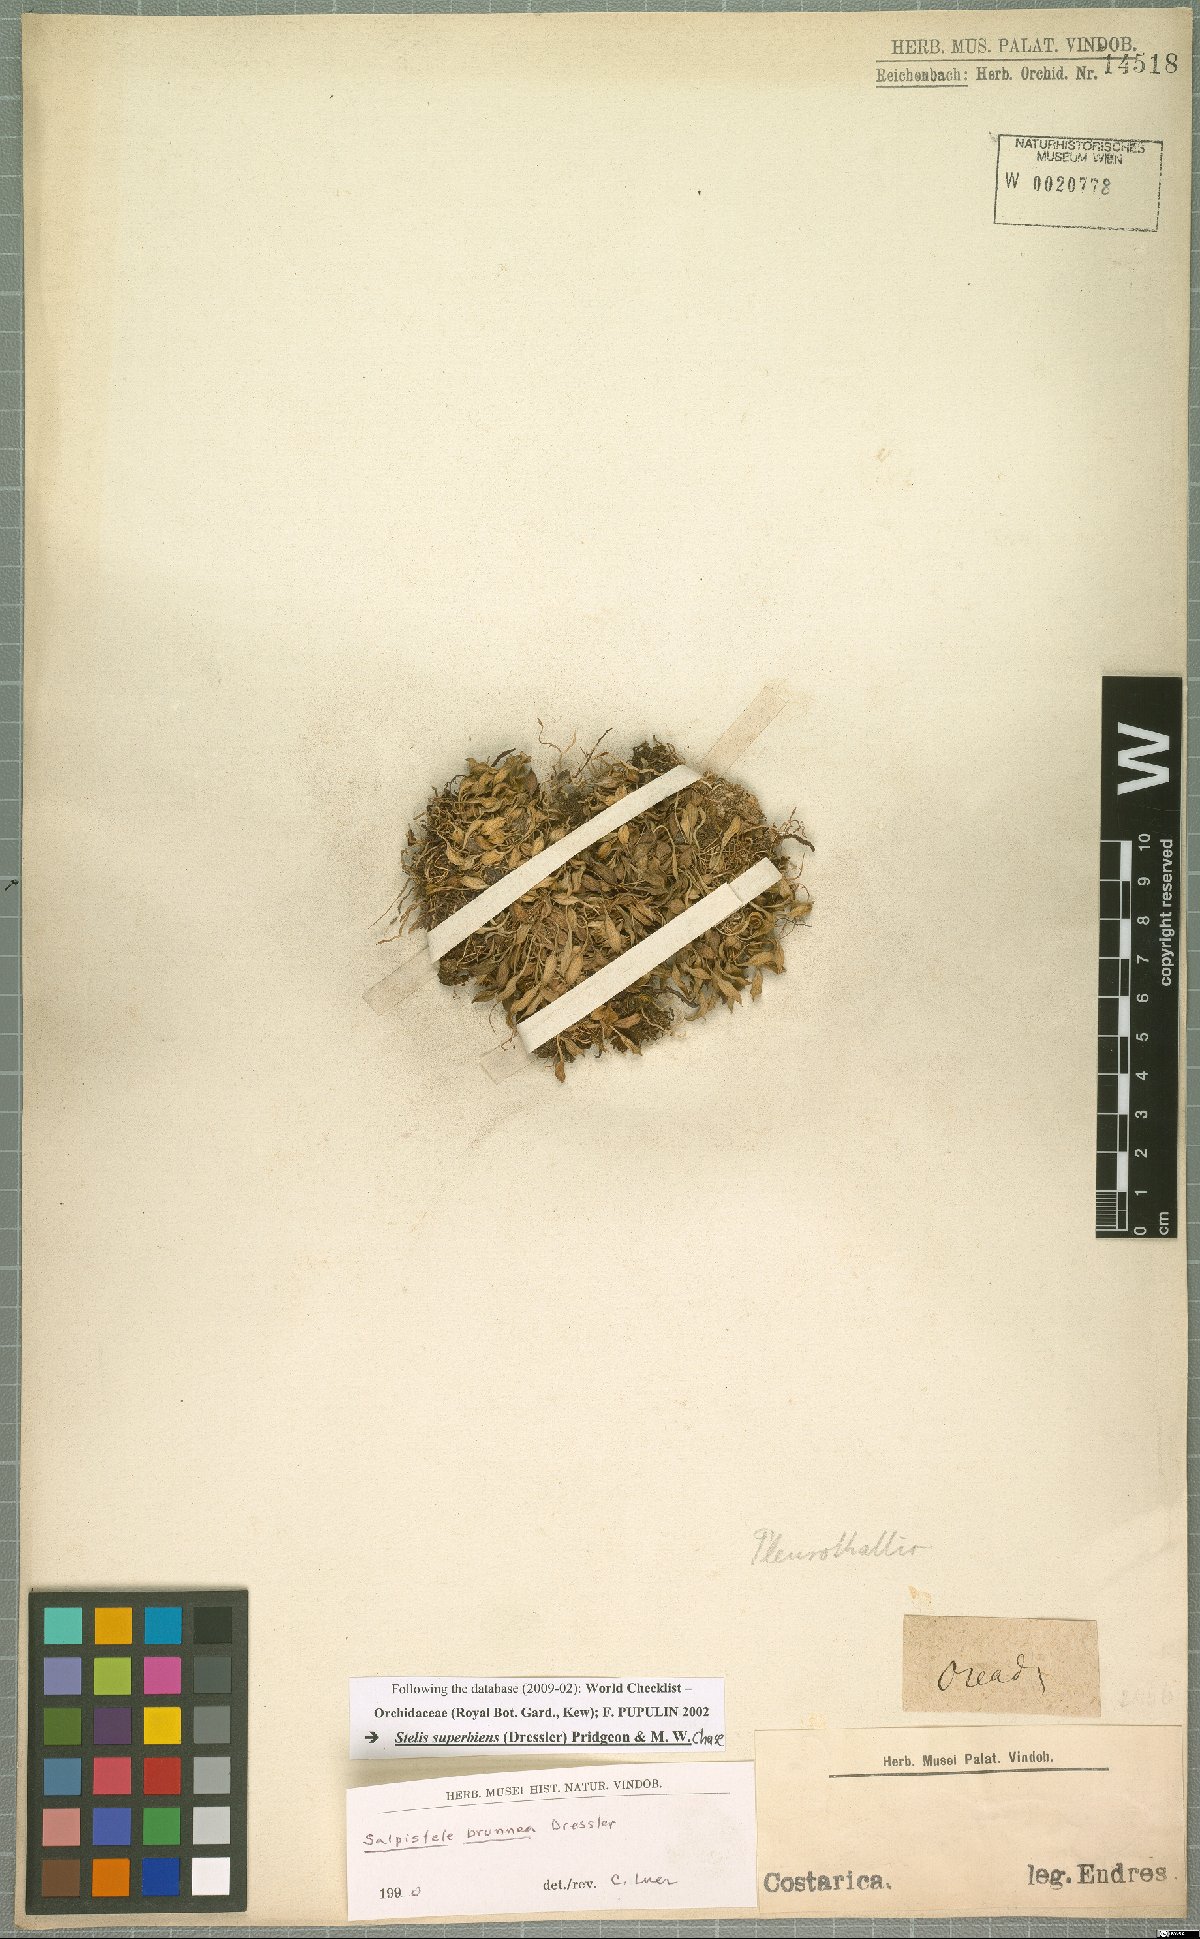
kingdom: Plantae
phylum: Tracheophyta
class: Liliopsida
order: Asparagales
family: Orchidaceae
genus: Stelis
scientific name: Stelis brunnea
